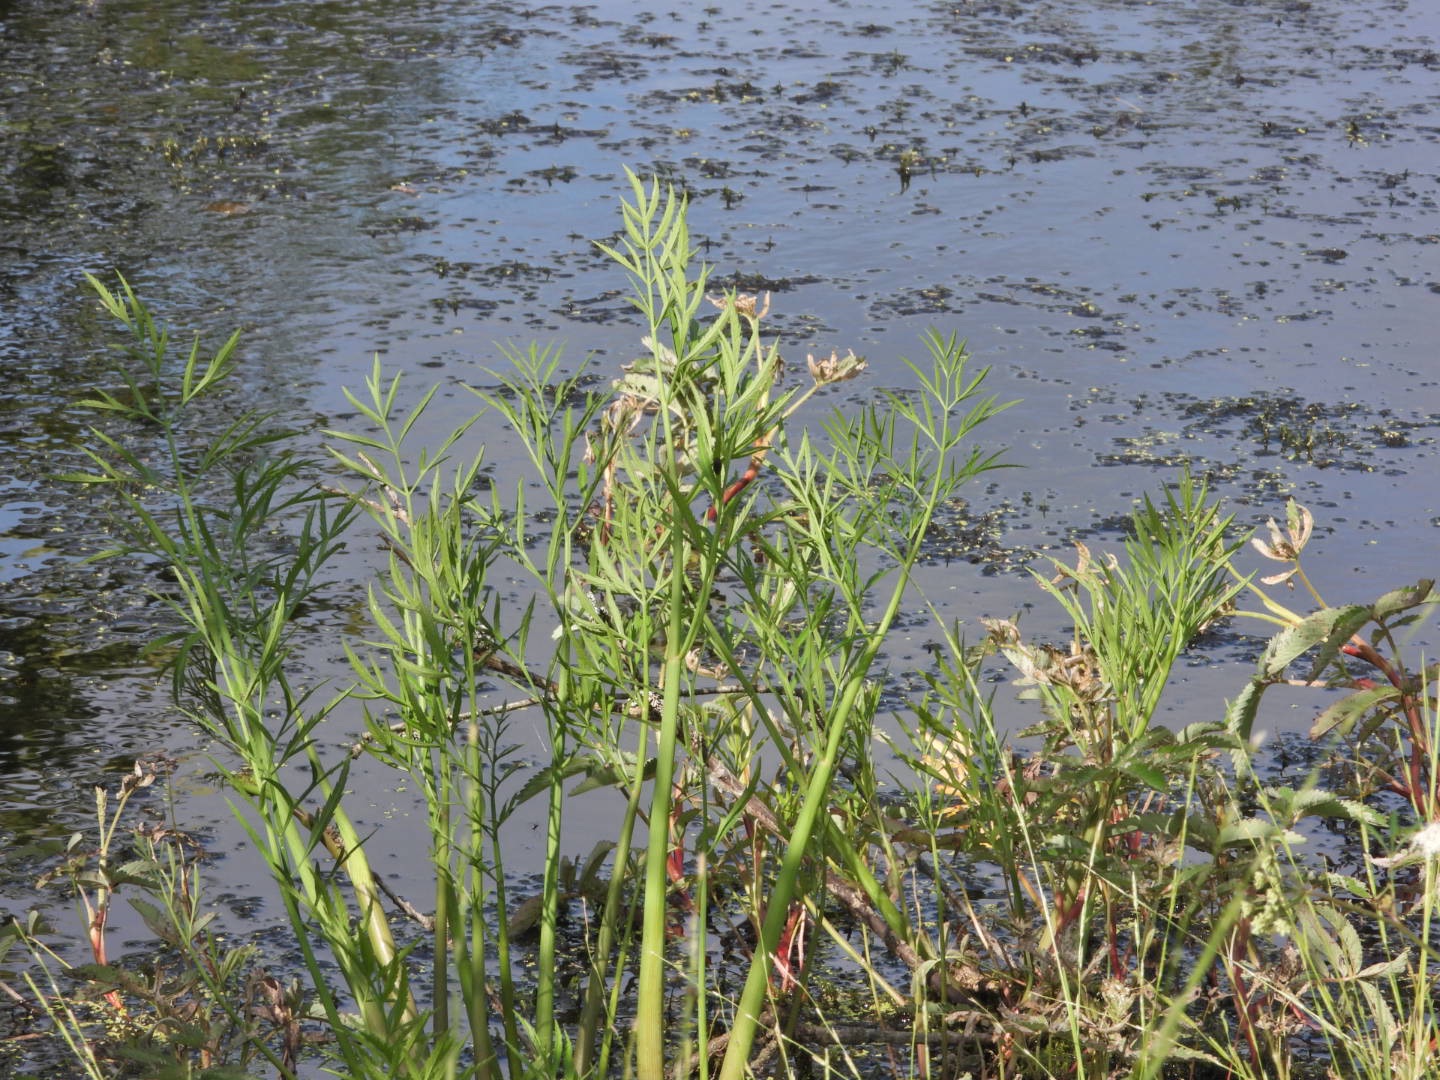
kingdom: Plantae
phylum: Tracheophyta
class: Magnoliopsida
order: Apiales
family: Apiaceae
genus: Cicuta
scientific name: Cicuta virosa
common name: Gifttyde
